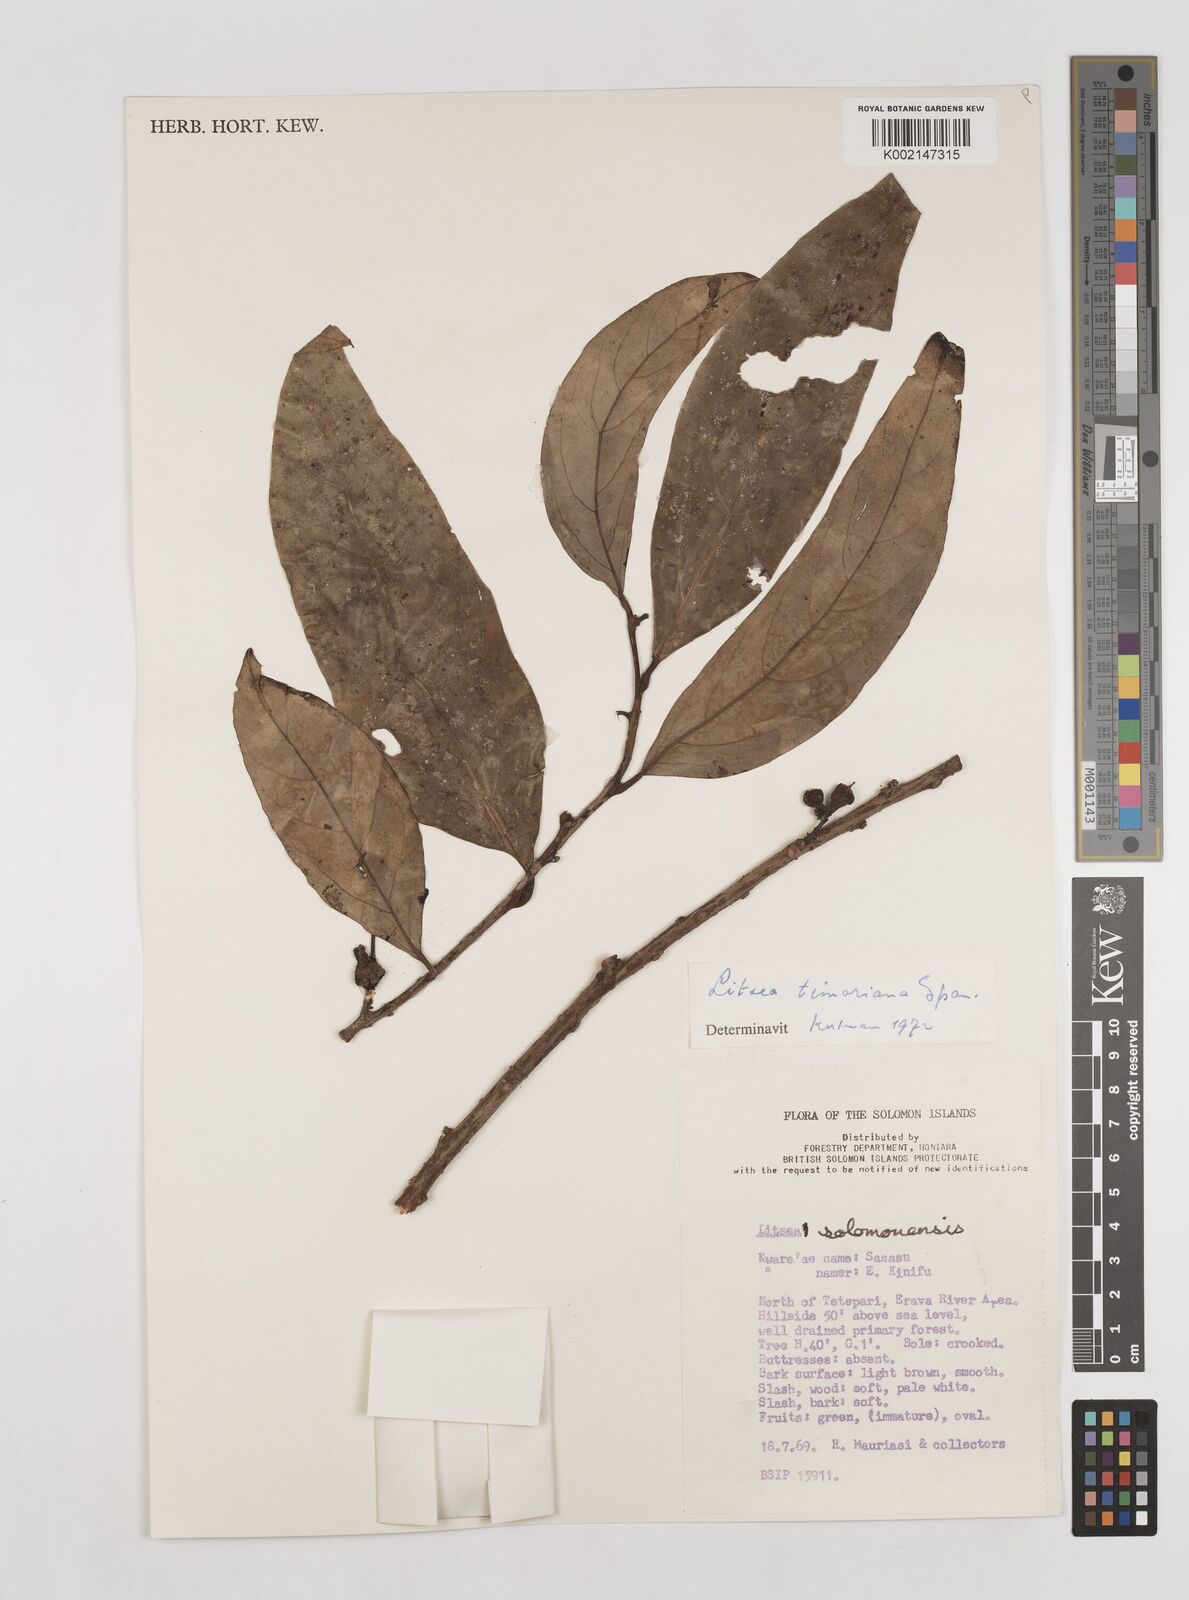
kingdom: Plantae
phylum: Tracheophyta
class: Magnoliopsida
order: Laurales
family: Lauraceae
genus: Litsea
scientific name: Litsea timoriana
